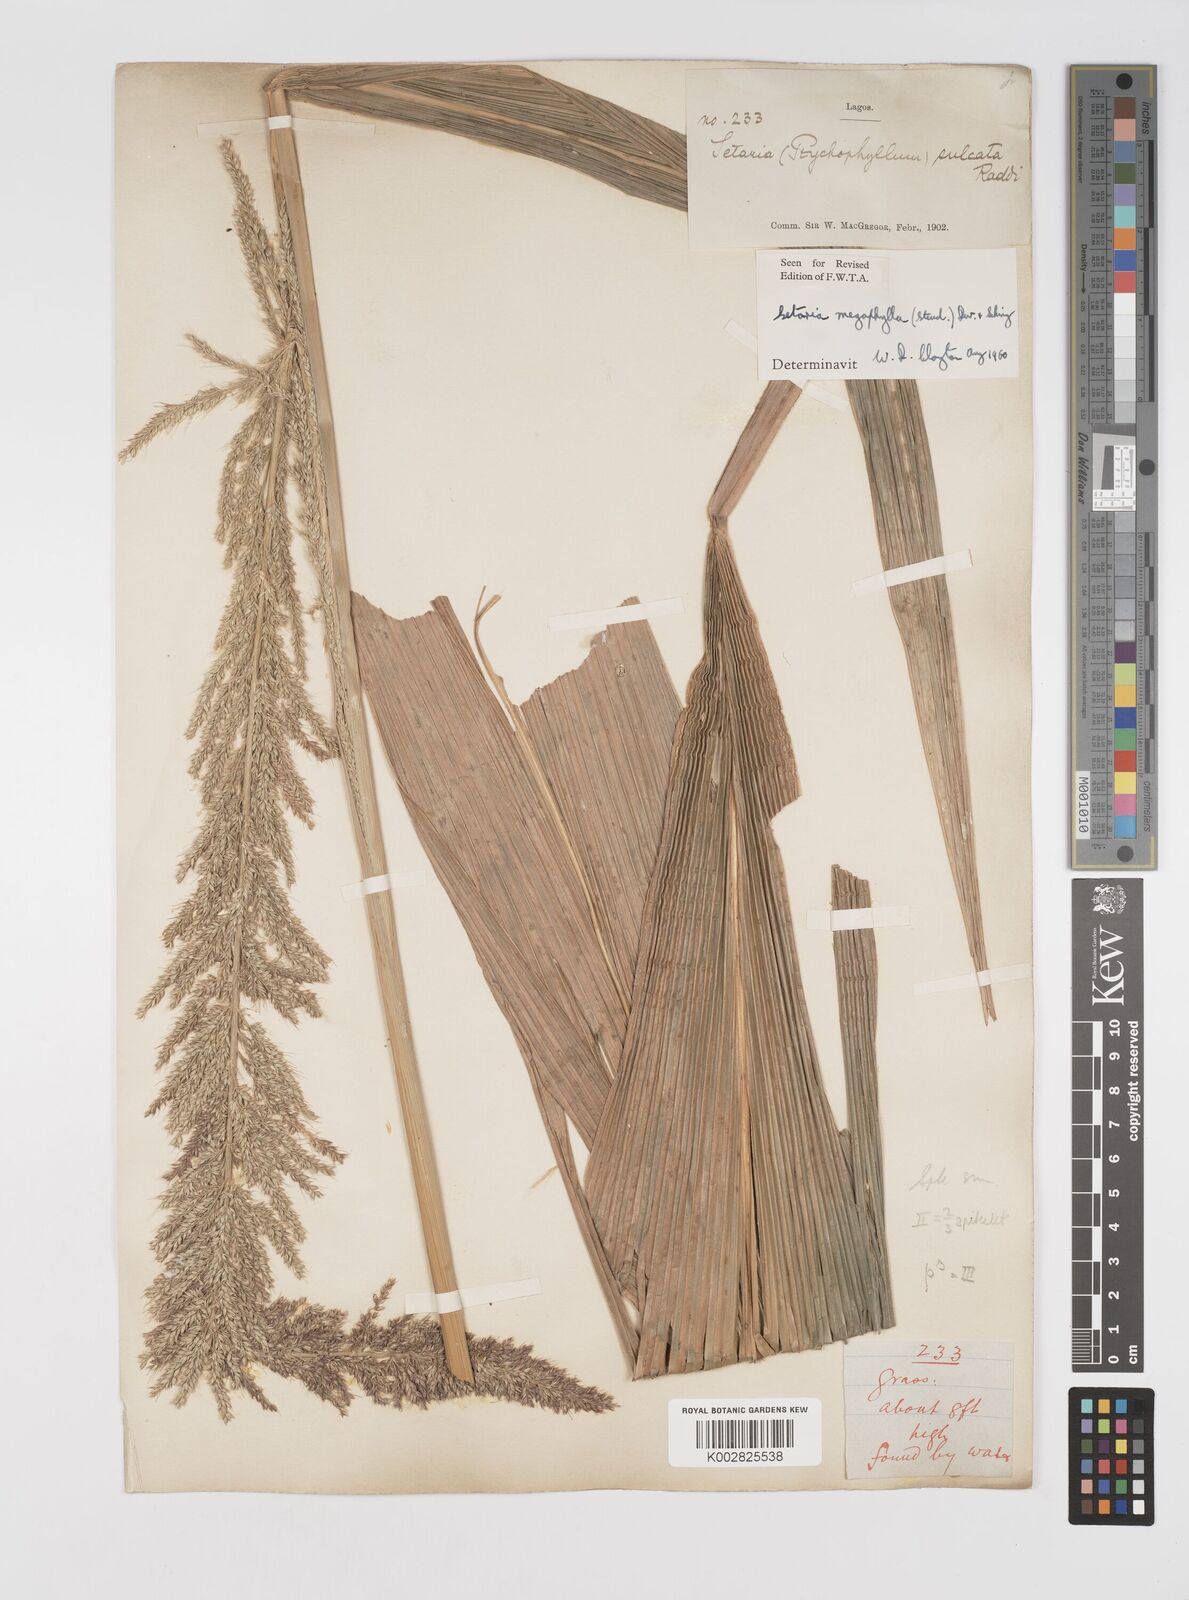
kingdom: Plantae
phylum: Tracheophyta
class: Liliopsida
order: Poales
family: Poaceae
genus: Setaria
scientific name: Setaria megaphylla
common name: Bigleaf bristlegrass
